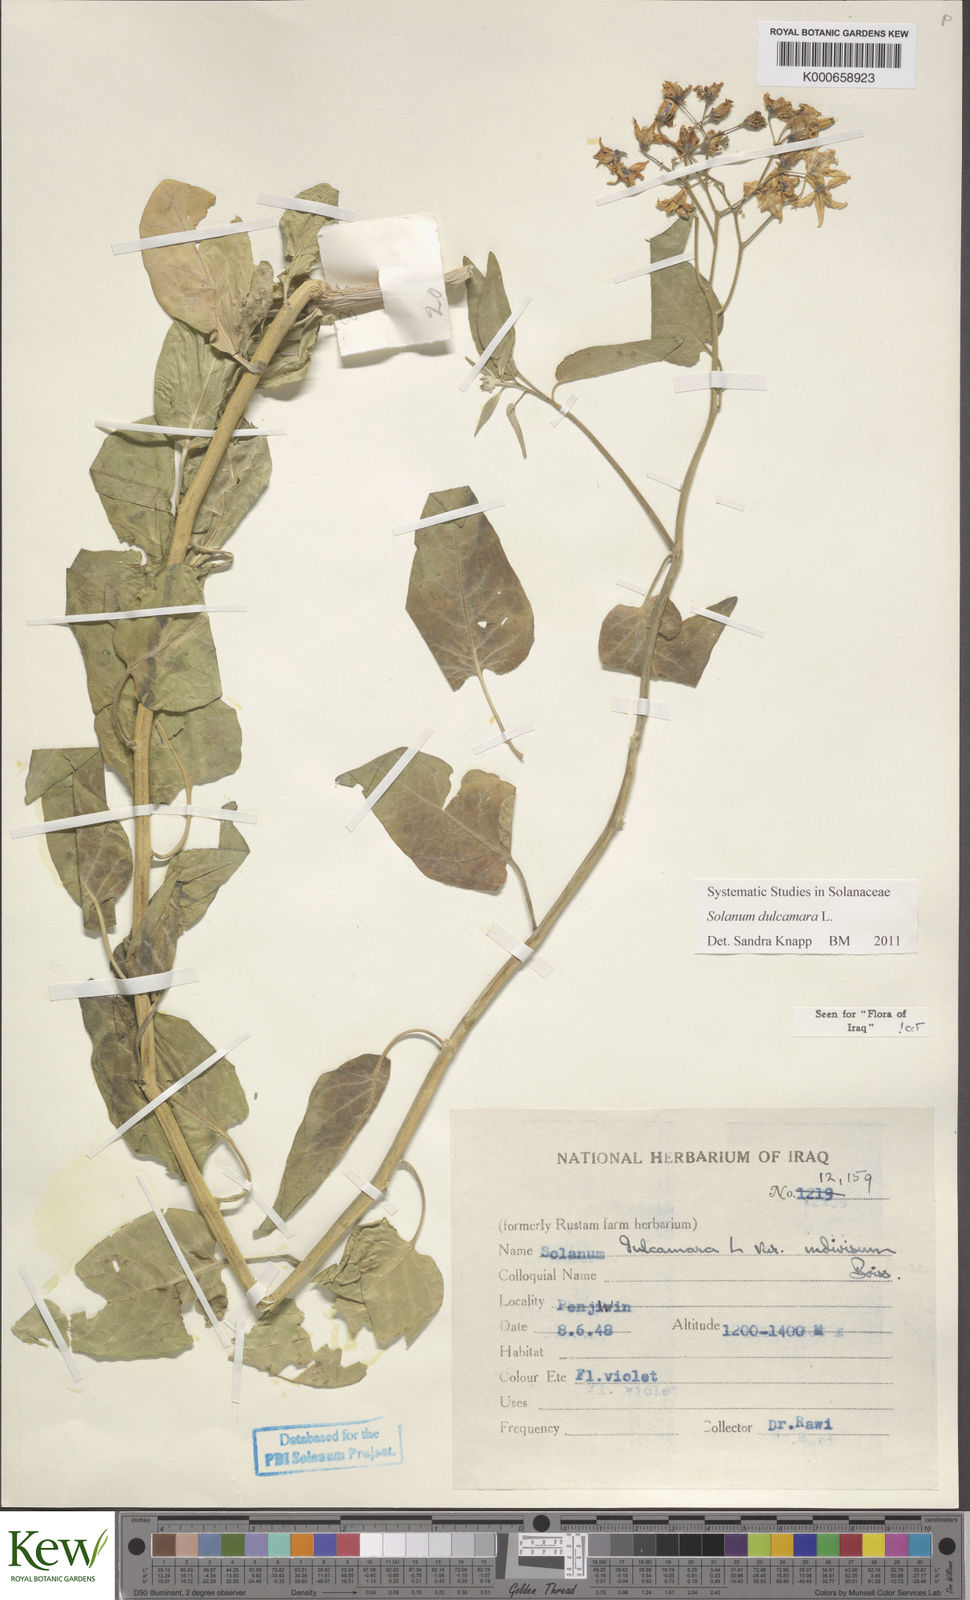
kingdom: Plantae
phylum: Tracheophyta
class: Magnoliopsida
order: Solanales
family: Solanaceae
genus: Solanum
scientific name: Solanum dulcamara
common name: Climbing nightshade
